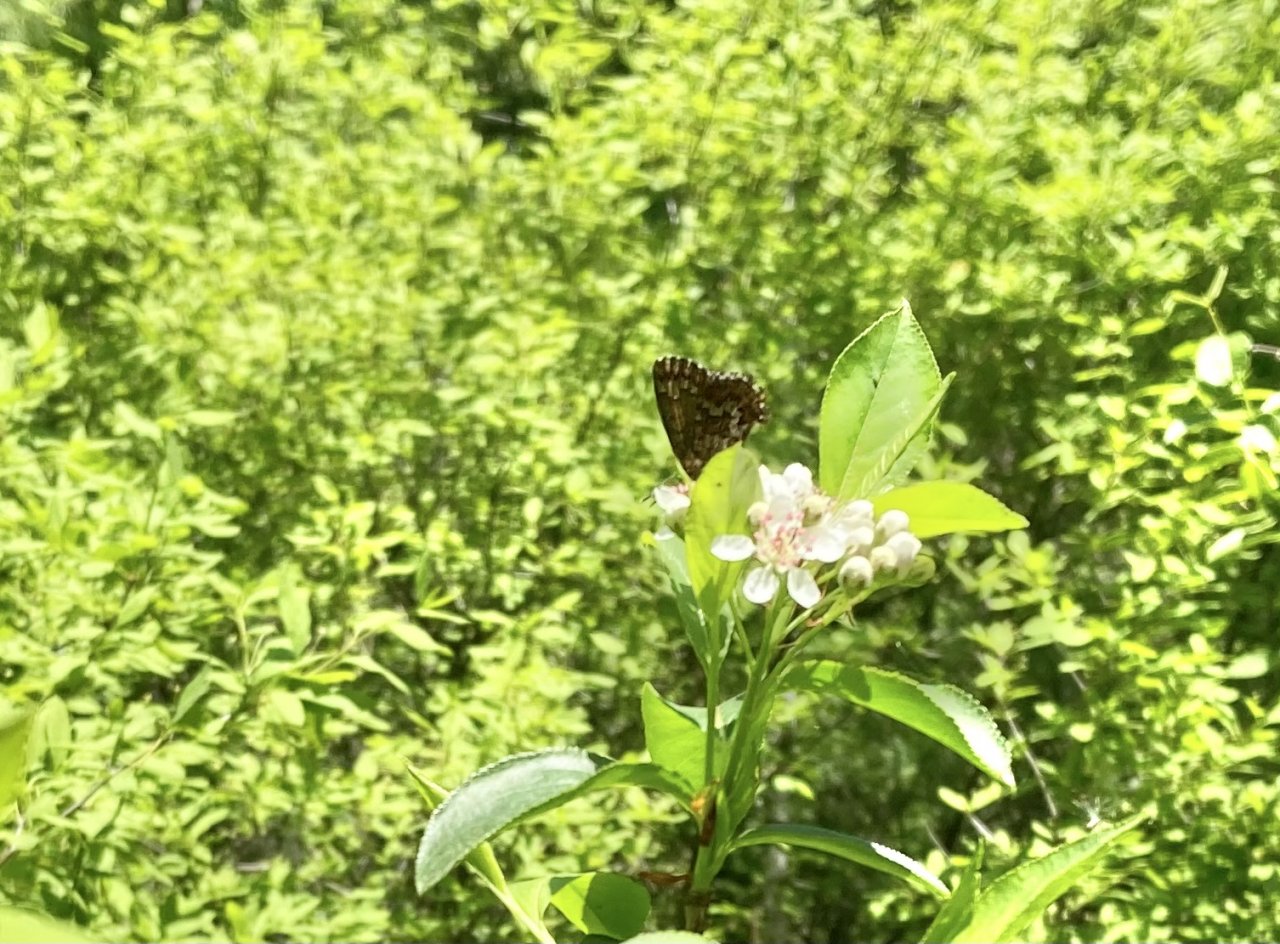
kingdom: Animalia
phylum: Arthropoda
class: Insecta
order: Lepidoptera
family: Lycaenidae
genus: Incisalia
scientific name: Incisalia niphon
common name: Eastern Pine Elfin
